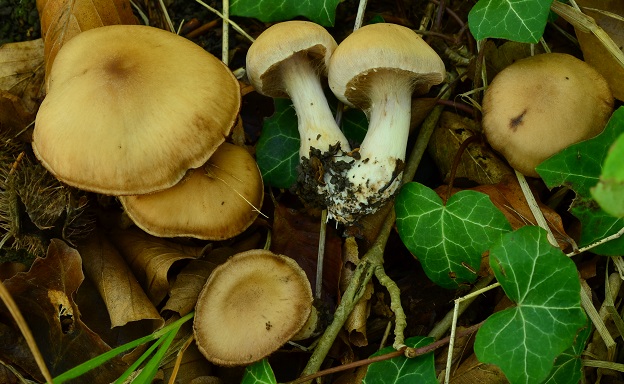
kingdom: Fungi
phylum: Basidiomycota
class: Agaricomycetes
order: Agaricales
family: Cortinariaceae
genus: Cortinarius
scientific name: Cortinarius
